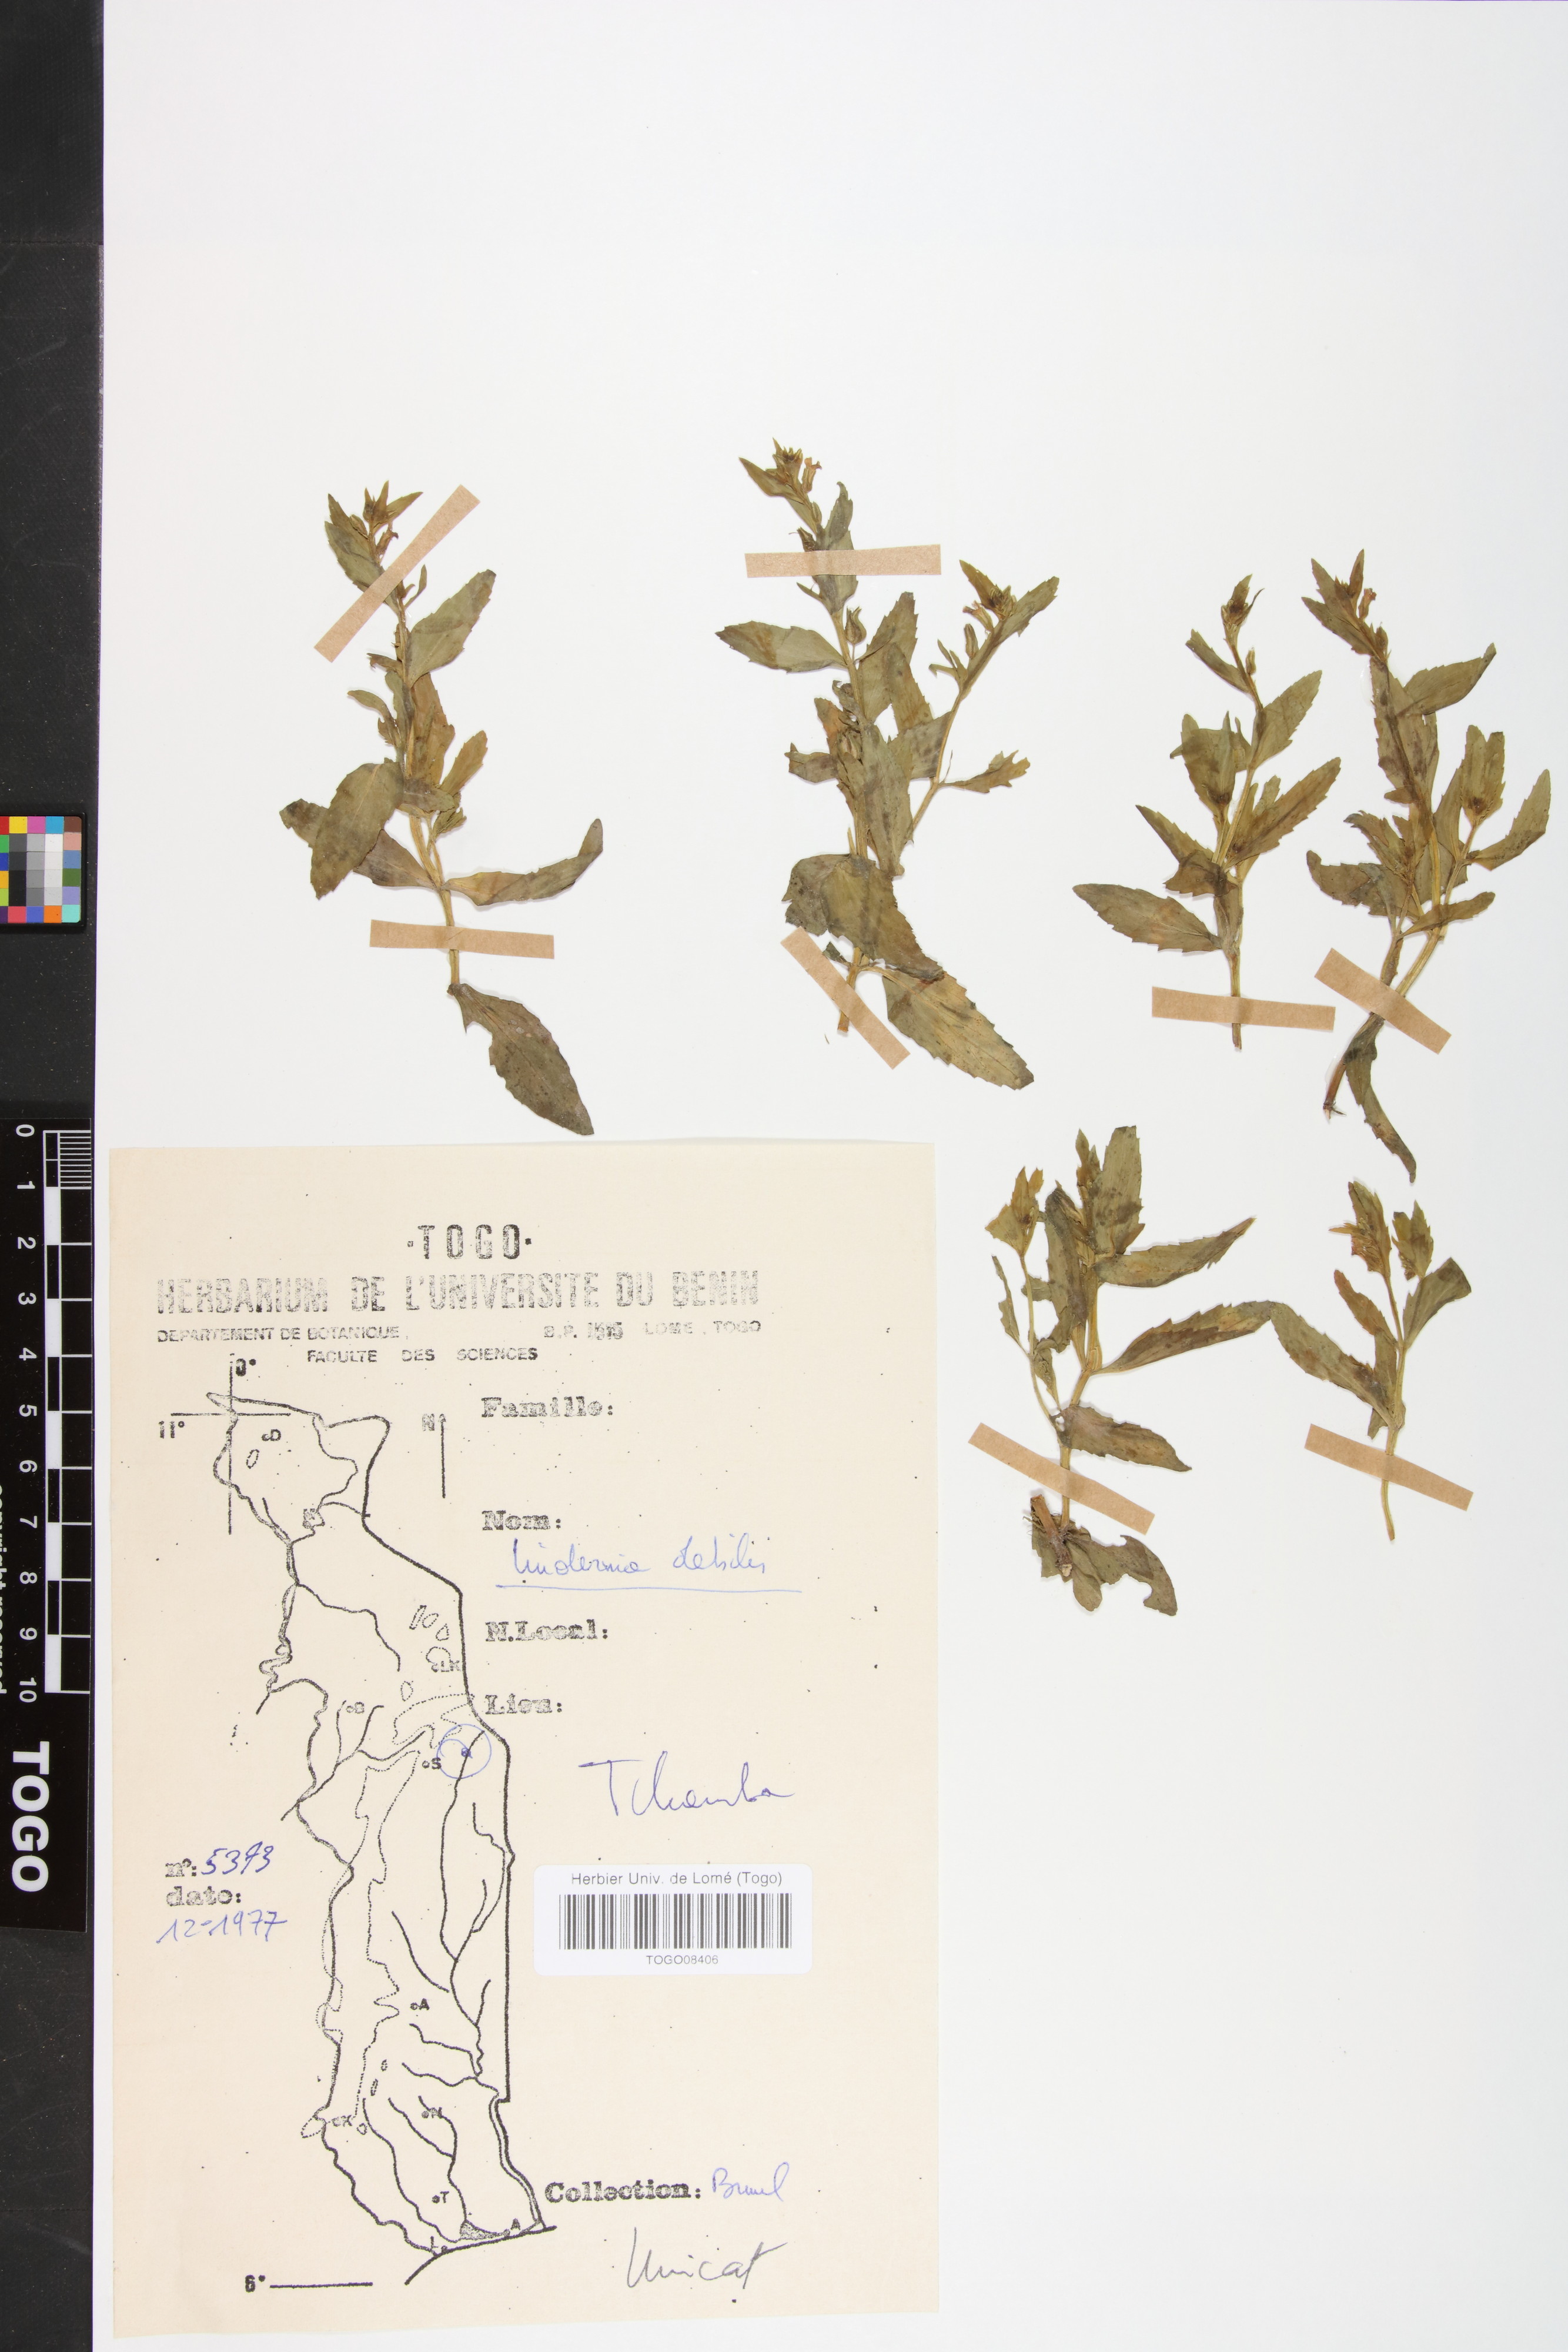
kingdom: Plantae
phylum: Tracheophyta
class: Magnoliopsida
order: Lamiales
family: Linderniaceae
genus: Crepidorhopalon
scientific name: Crepidorhopalon debilis
